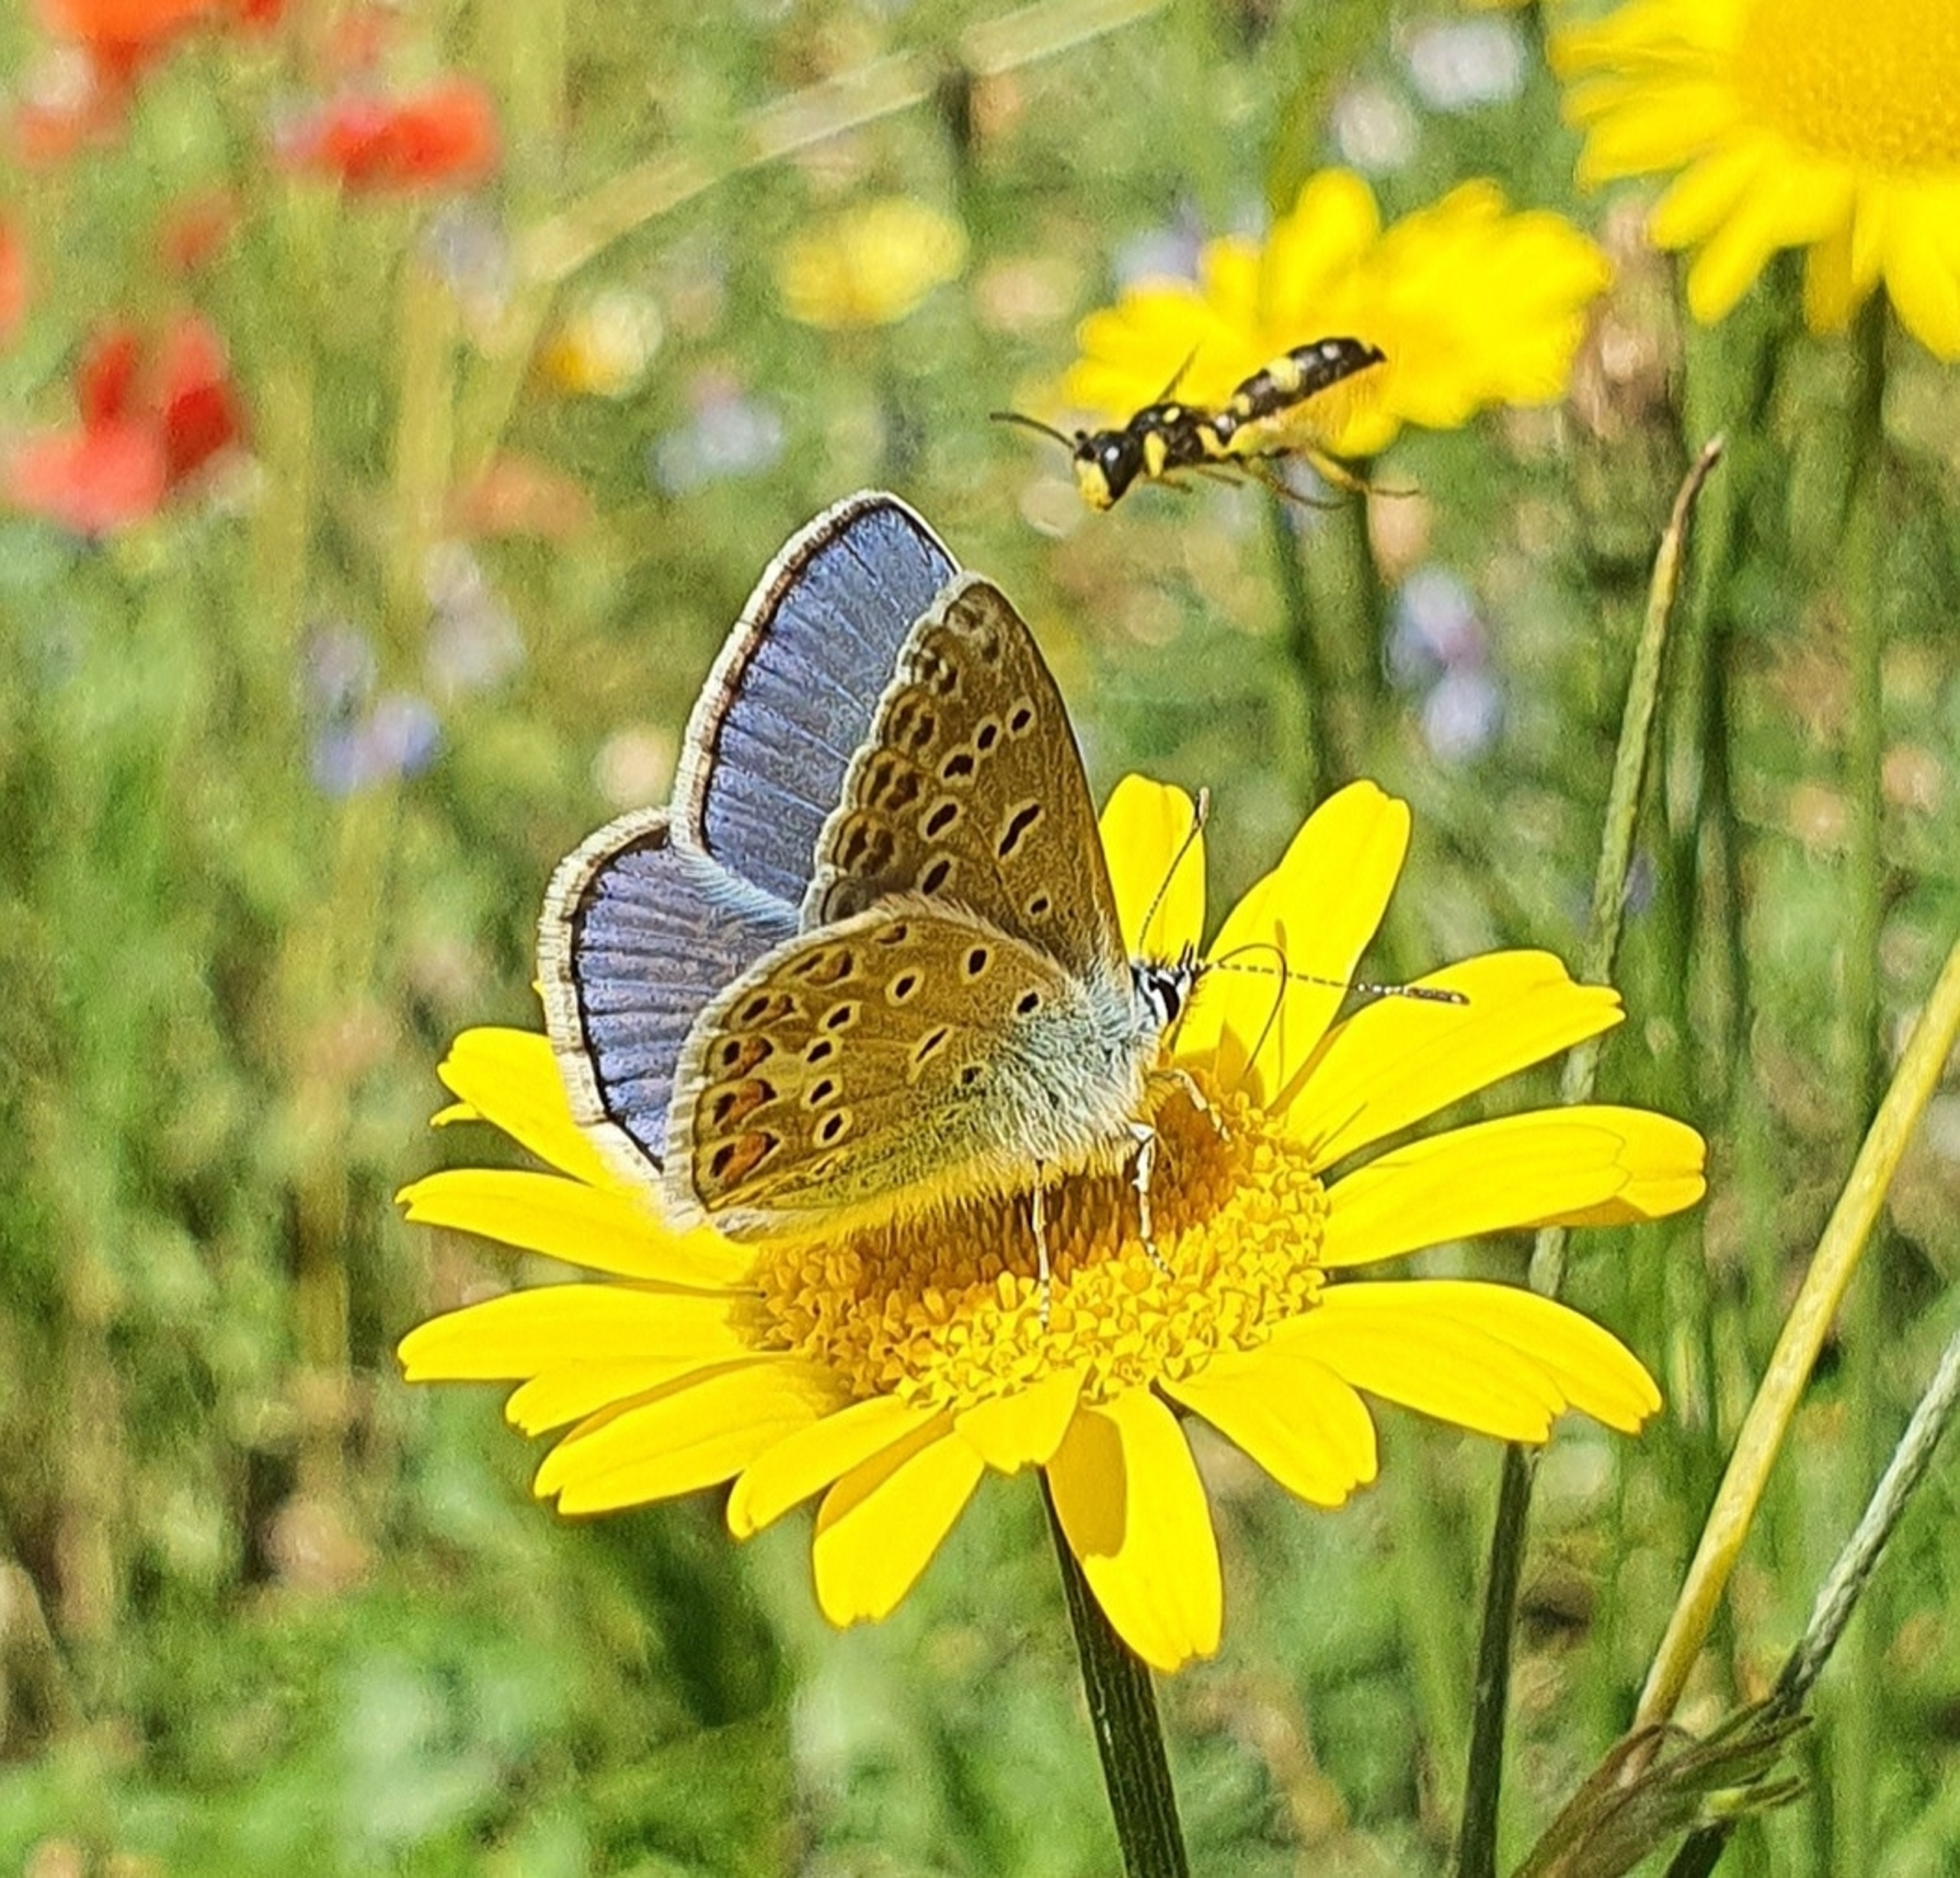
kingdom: Animalia
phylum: Arthropoda
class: Insecta
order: Lepidoptera
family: Lycaenidae
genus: Polyommatus
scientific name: Polyommatus icarus
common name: Almindelig blåfugl
